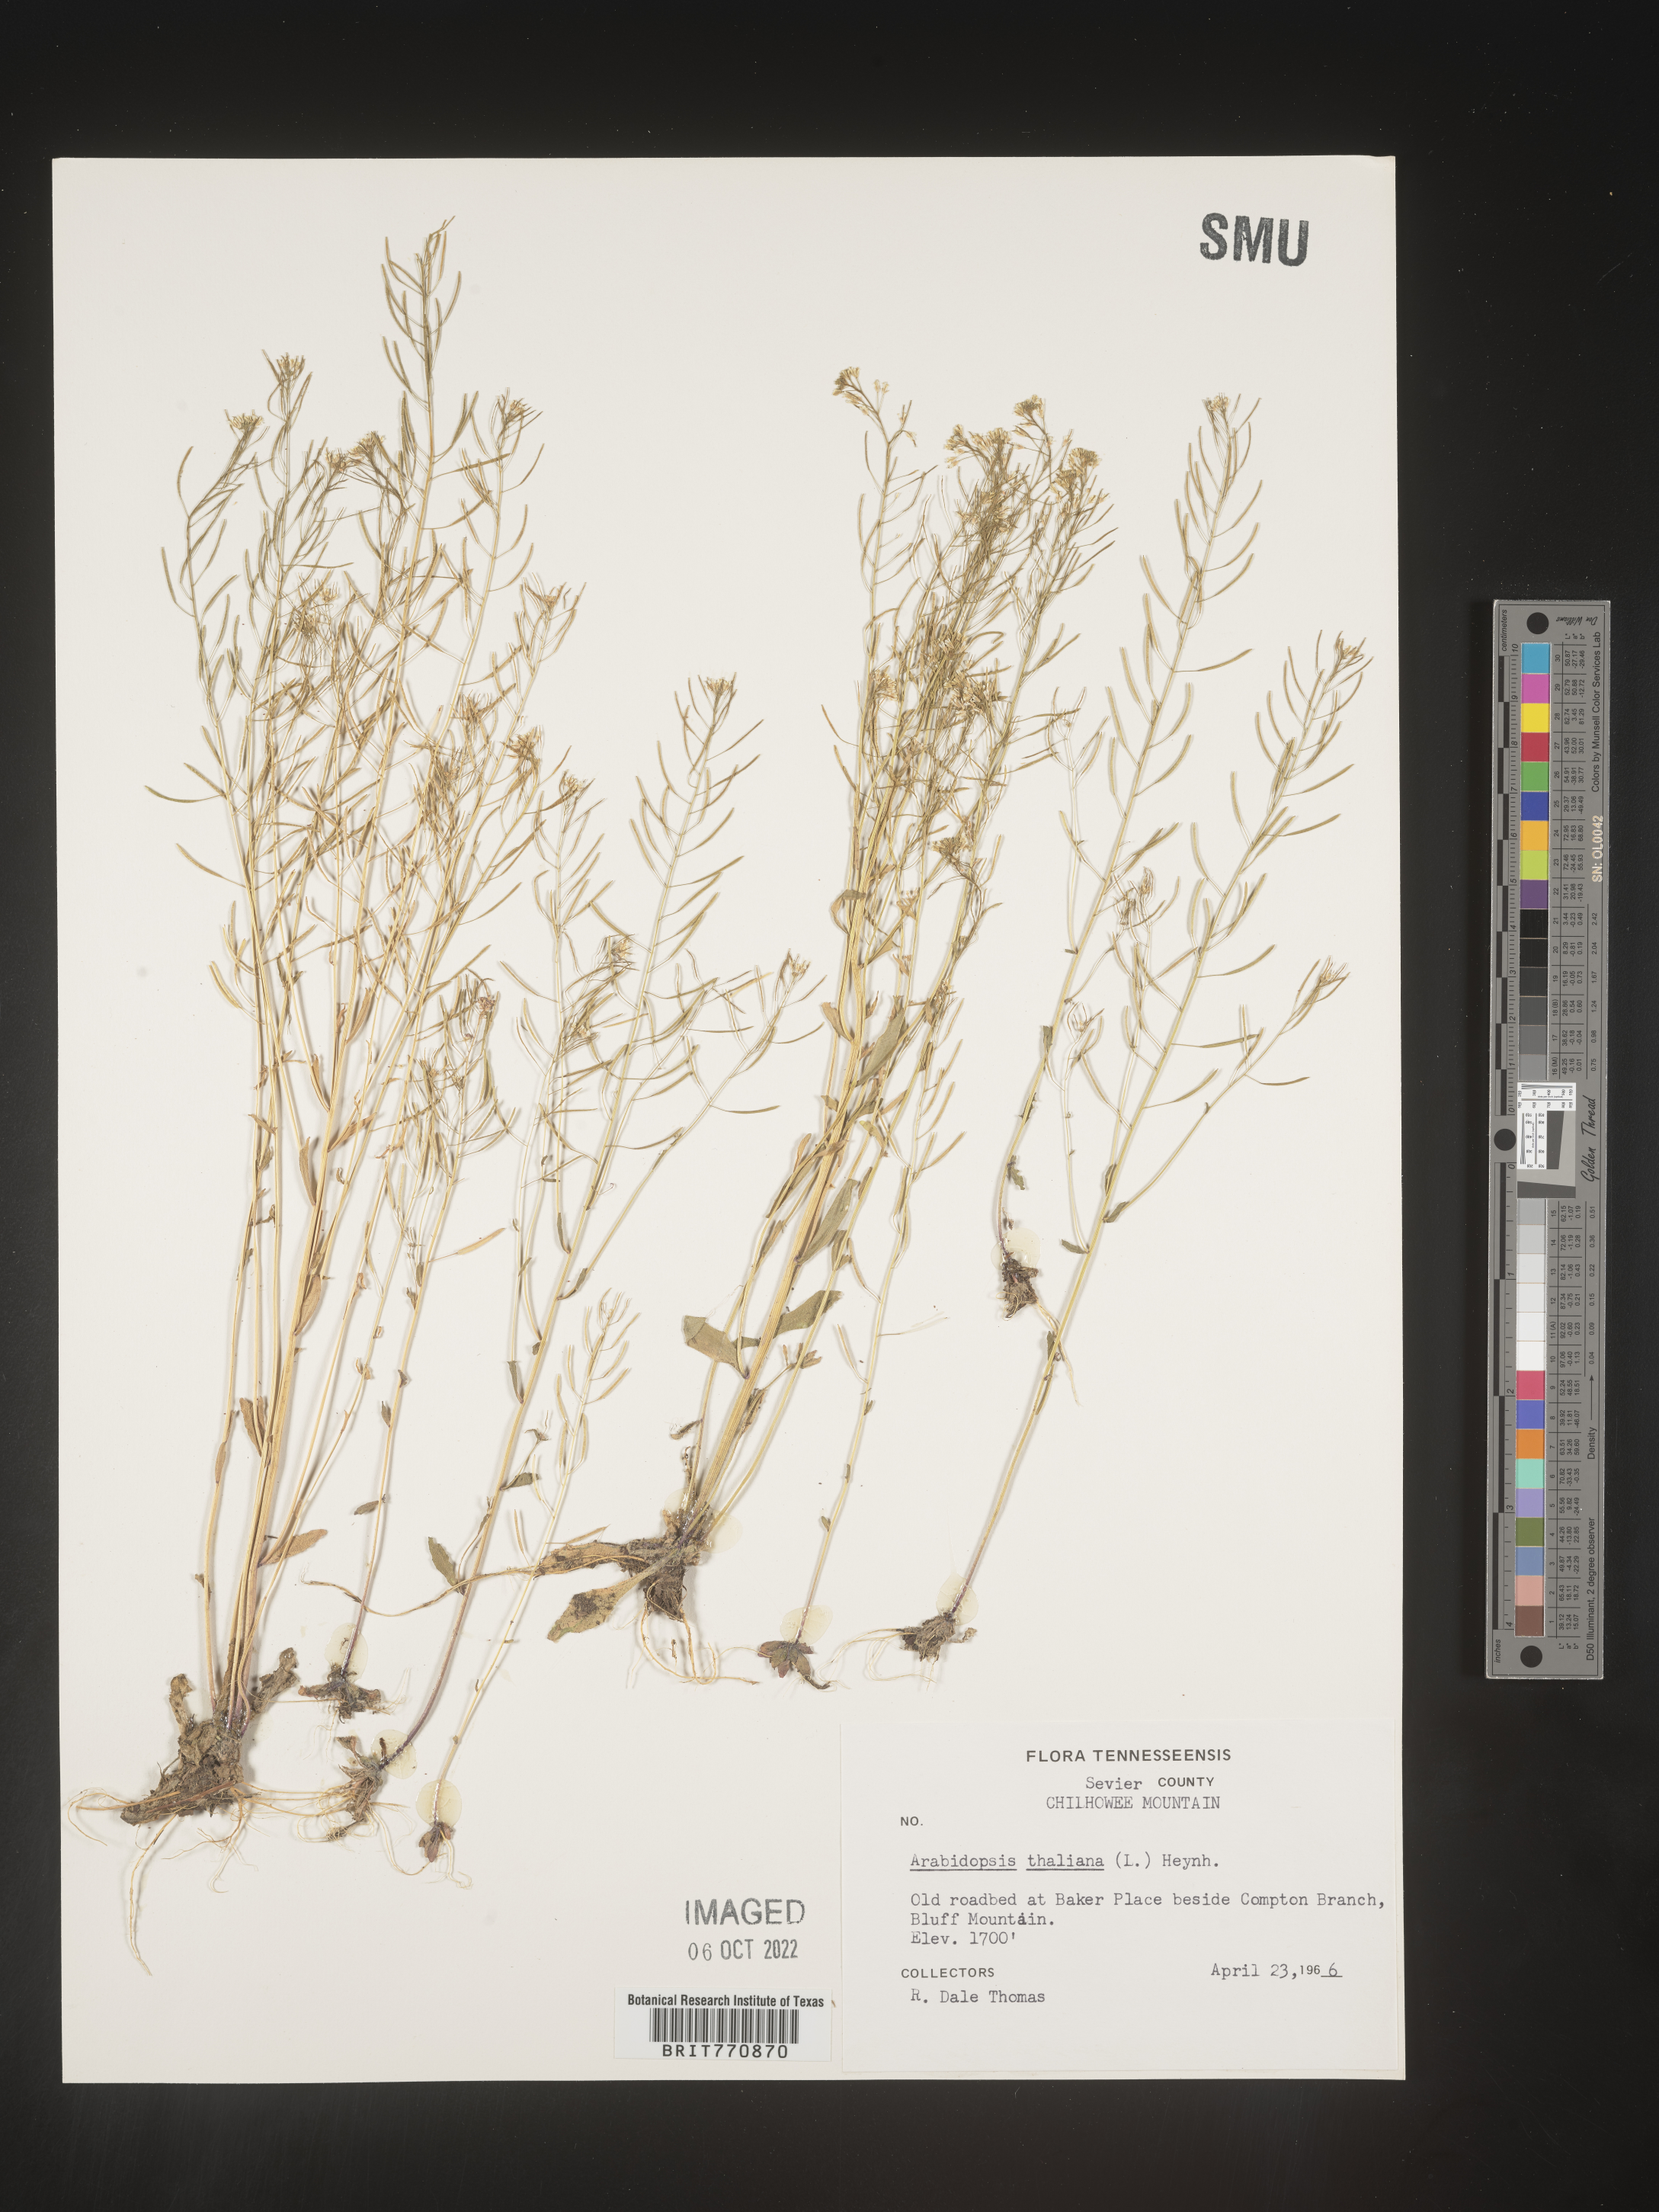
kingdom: Plantae
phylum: Tracheophyta
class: Magnoliopsida
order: Brassicales
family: Brassicaceae
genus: Arabidopsis
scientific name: Arabidopsis thaliana
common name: Thale cress
